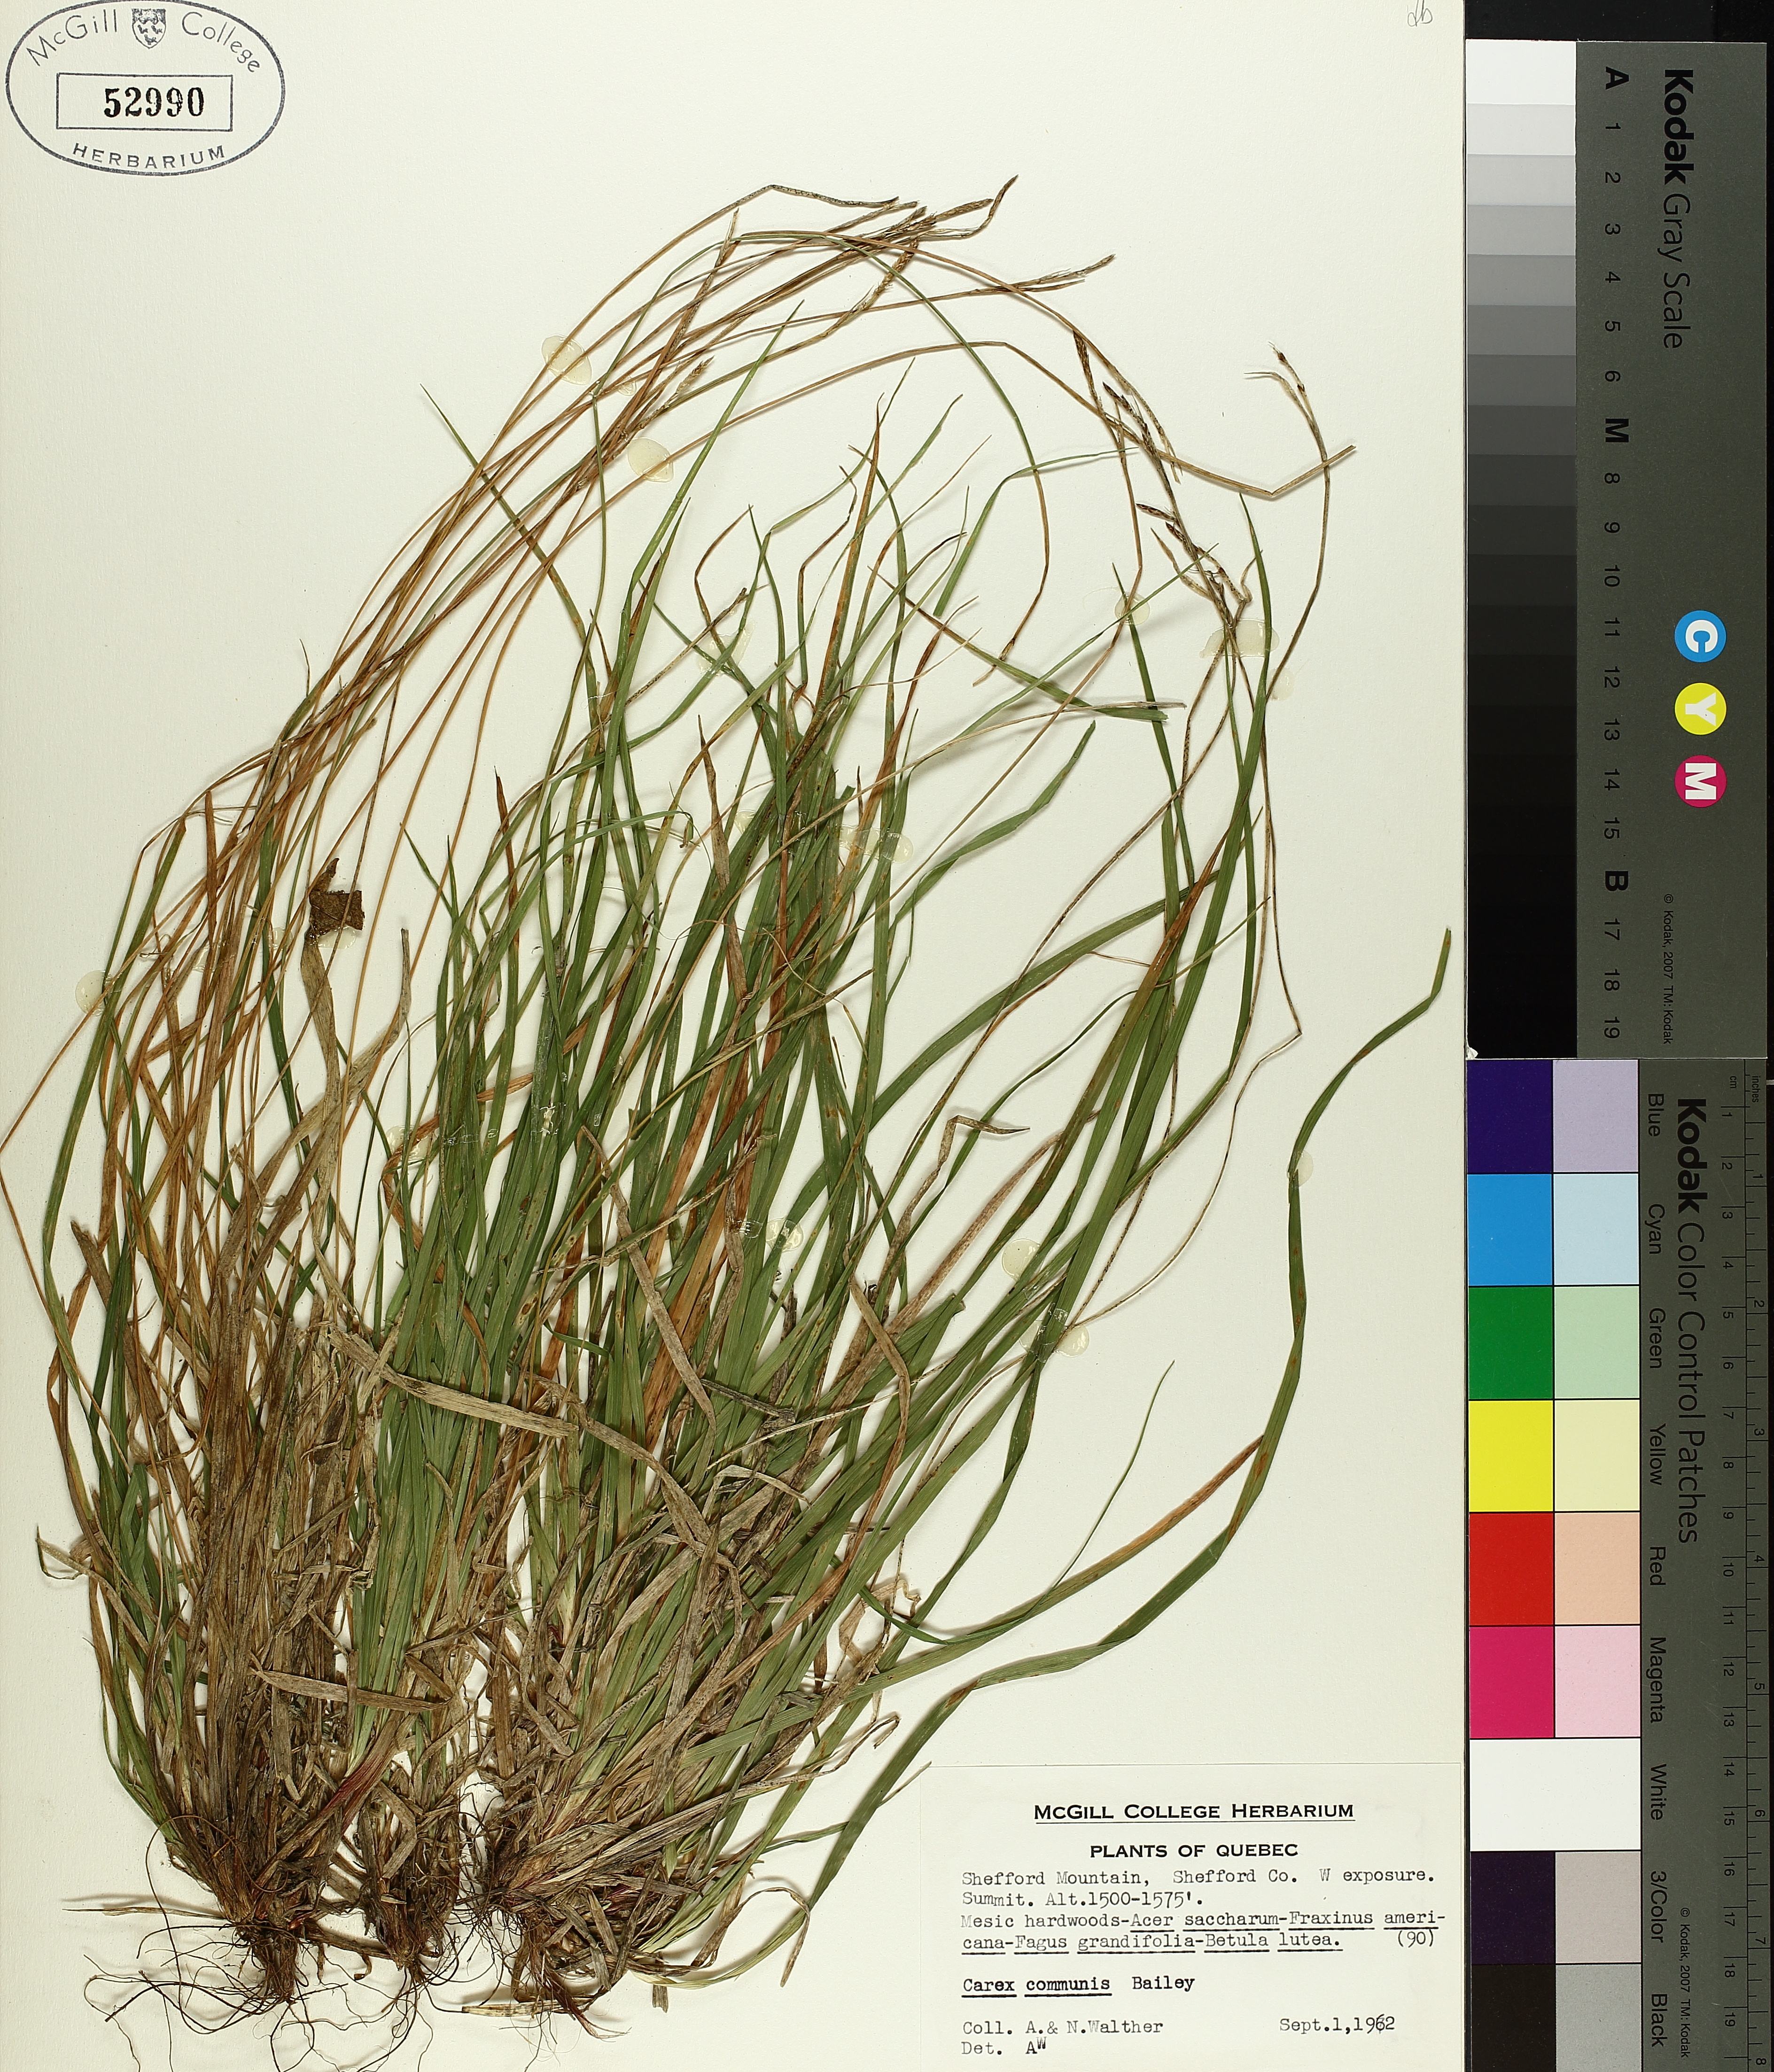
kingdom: Plantae
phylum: Tracheophyta
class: Liliopsida
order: Poales
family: Cyperaceae
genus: Carex
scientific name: Carex communis
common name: Colonial oak sedge
